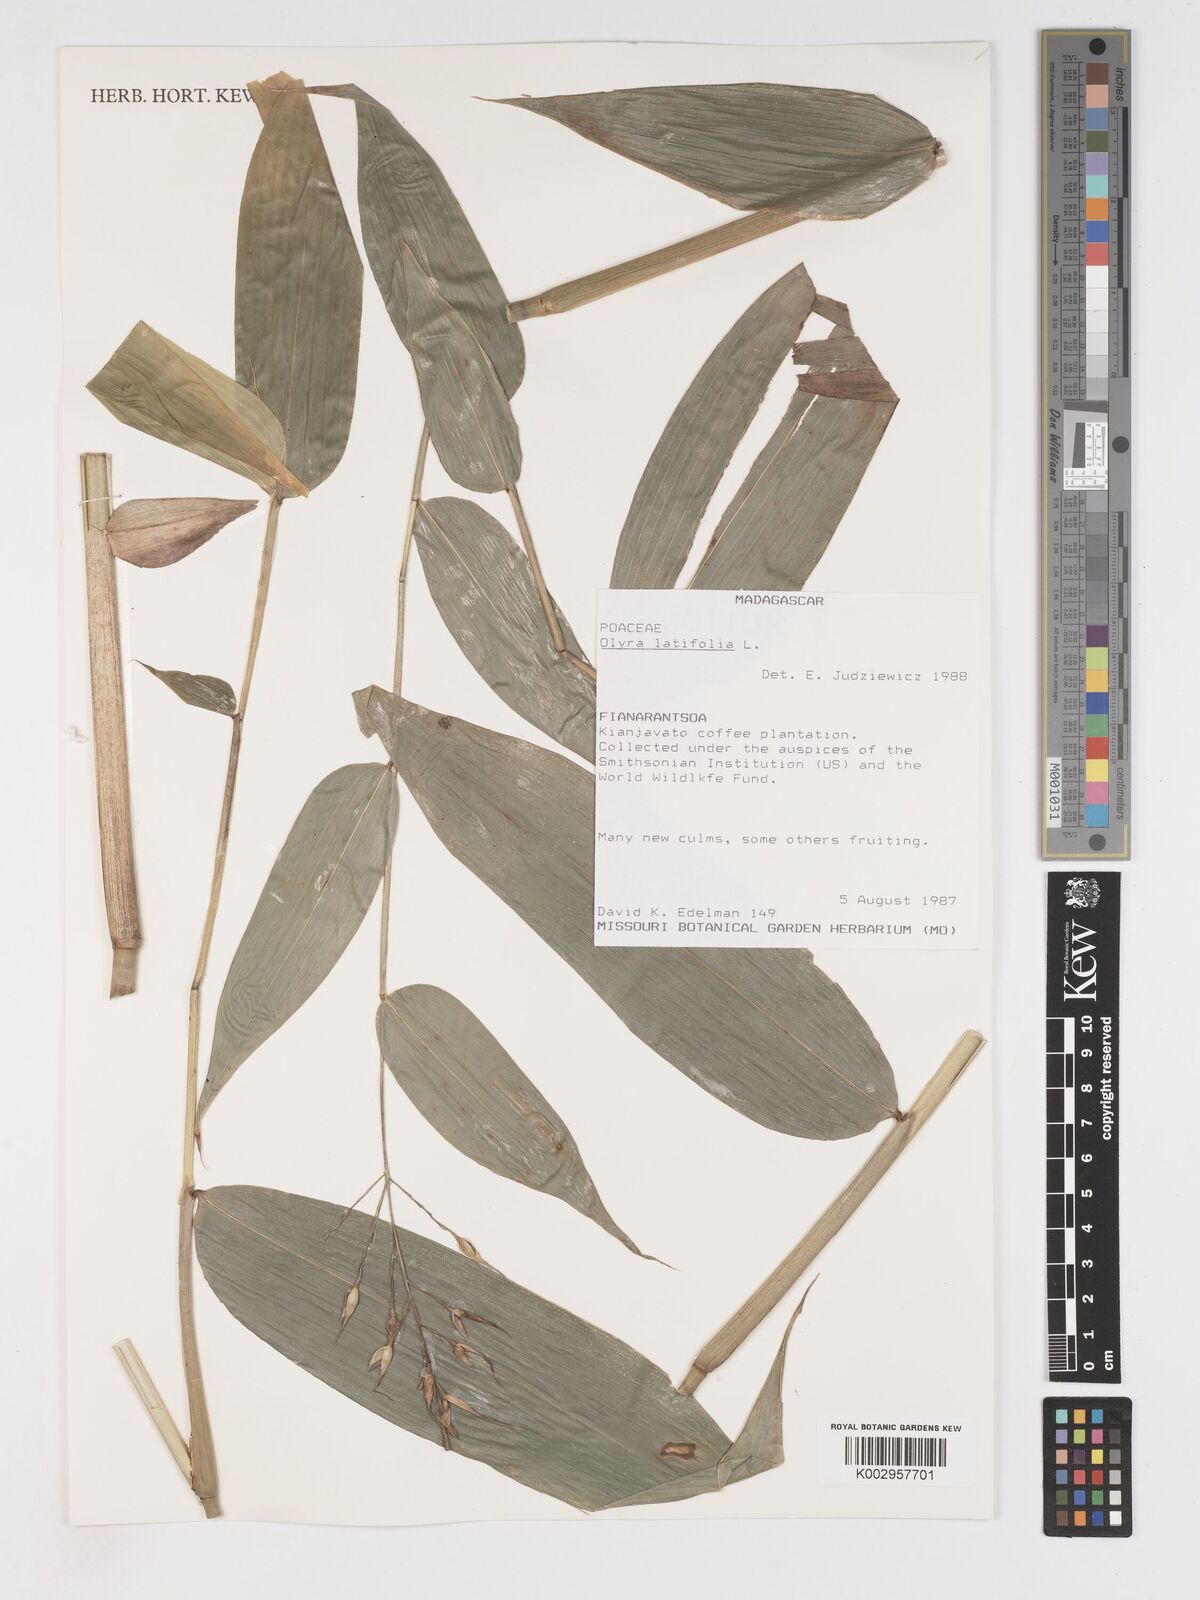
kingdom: Plantae
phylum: Tracheophyta
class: Liliopsida
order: Poales
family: Poaceae
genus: Olyra
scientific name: Olyra latifolia
